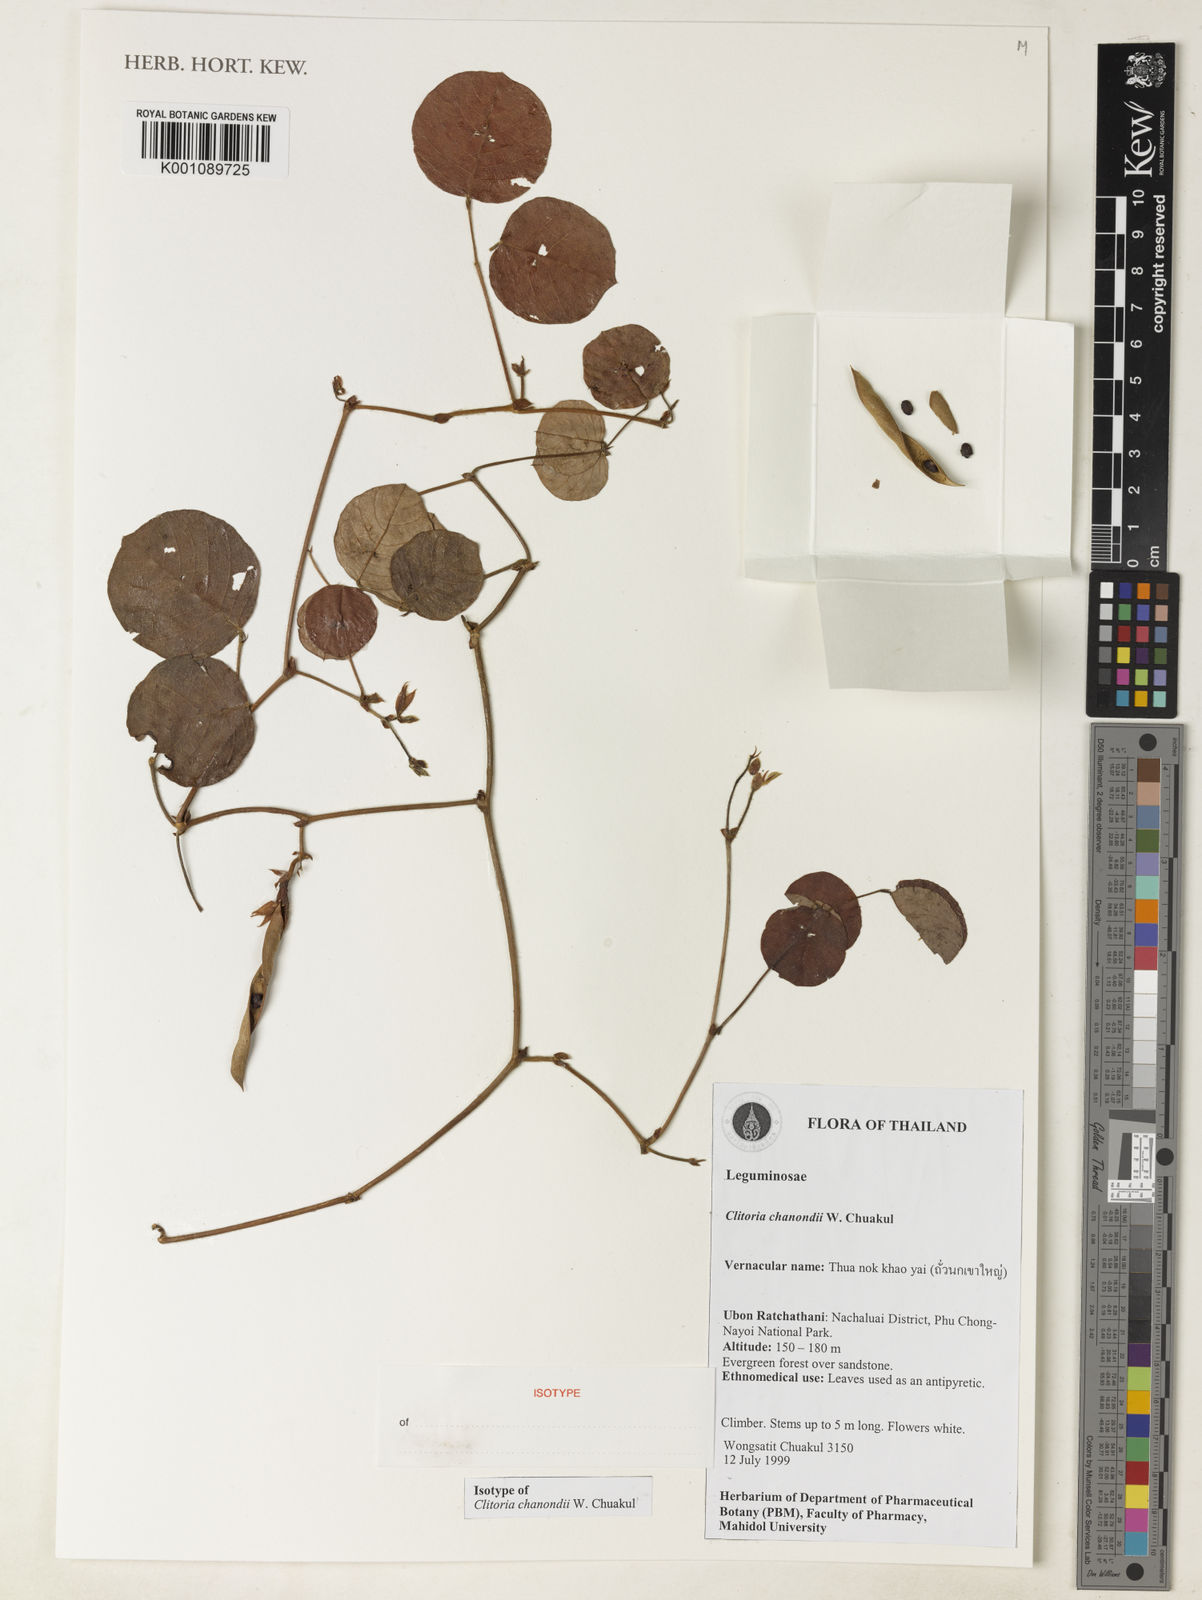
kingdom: Plantae
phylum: Tracheophyta
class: Magnoliopsida
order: Fabales
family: Fabaceae
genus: Clitoria
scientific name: Clitoria chanondii
